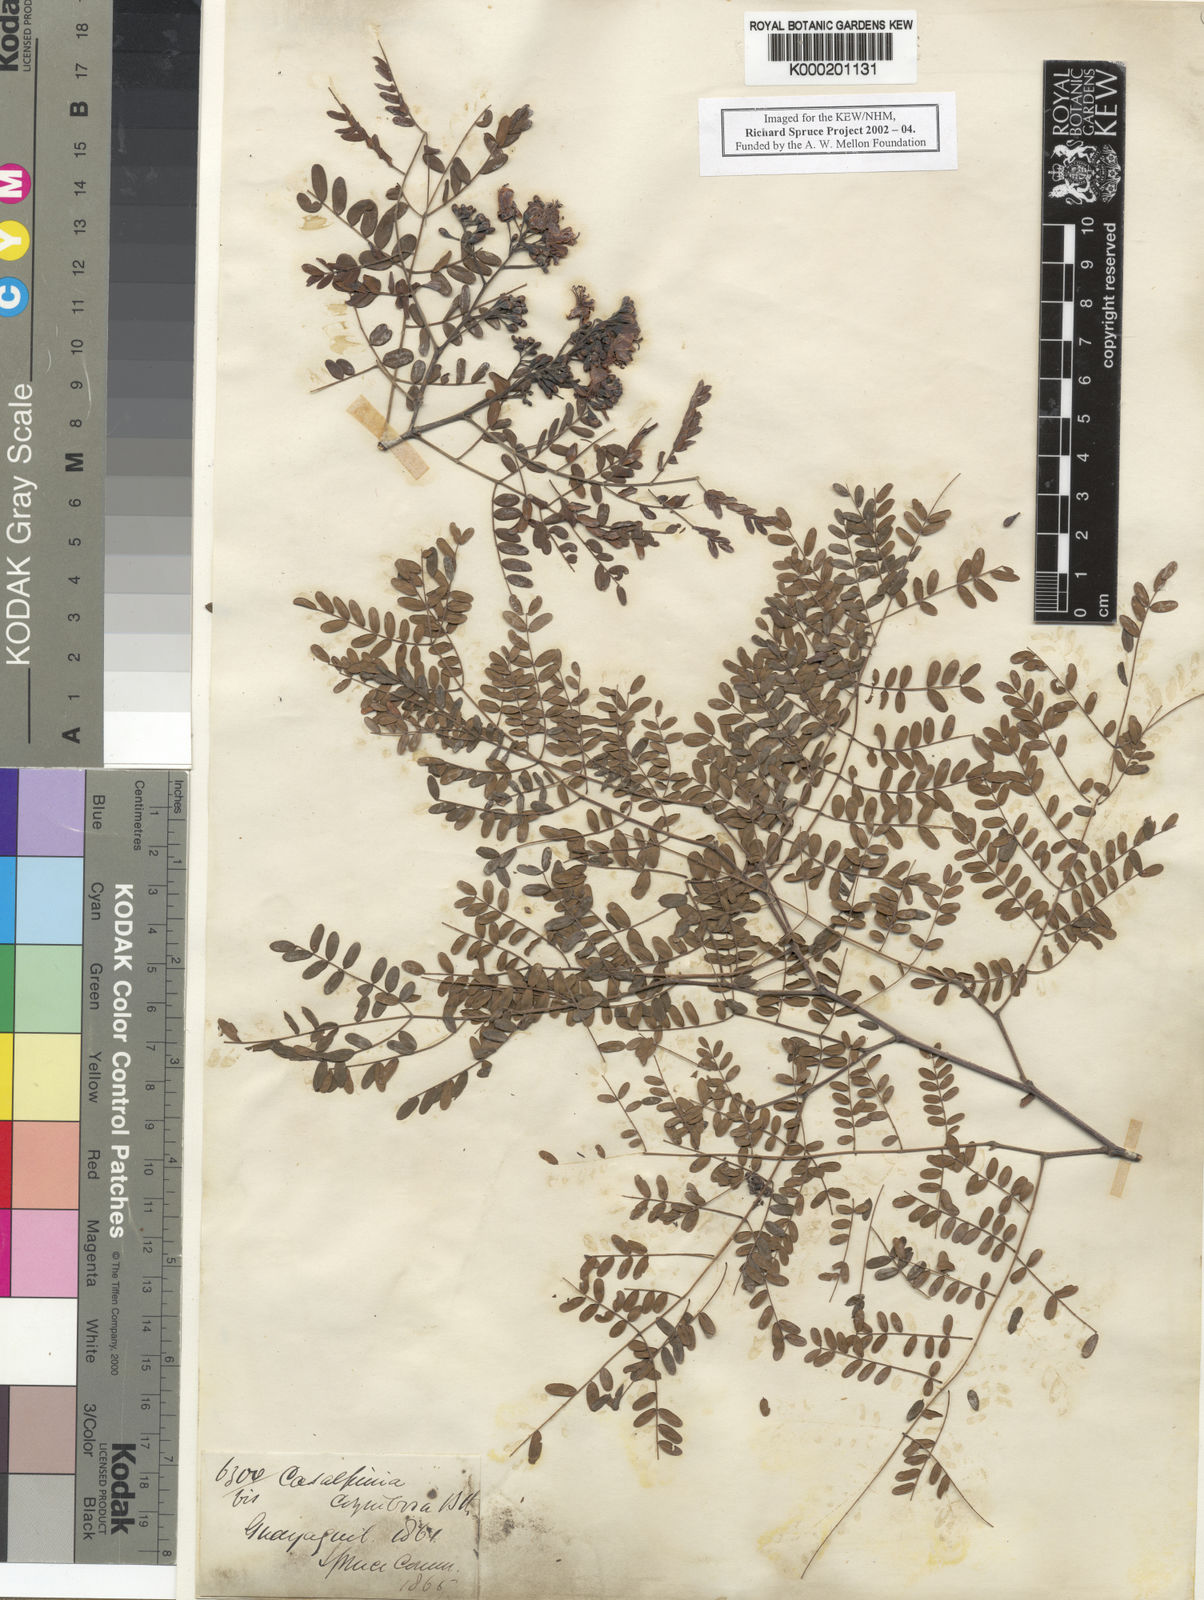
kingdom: Plantae
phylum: Tracheophyta
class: Magnoliopsida
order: Fabales
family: Fabaceae
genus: Libidibia
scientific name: Libidibia glabrata
